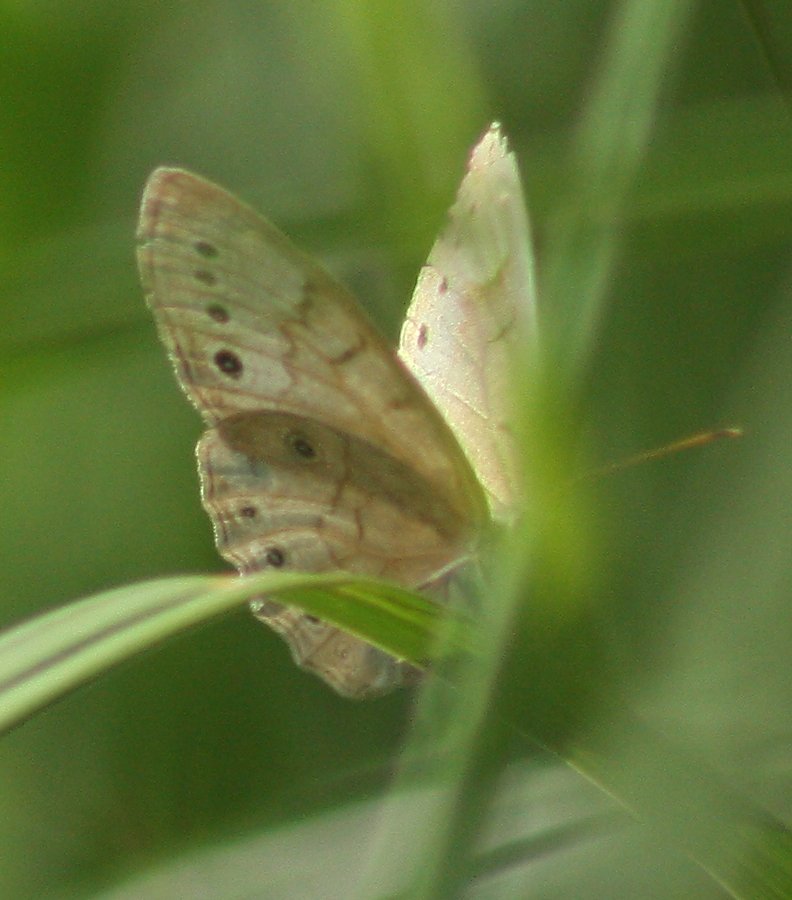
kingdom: Animalia
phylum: Arthropoda
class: Insecta
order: Lepidoptera
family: Nymphalidae
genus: Lethe
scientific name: Lethe eurydice
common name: Eyed Brown
